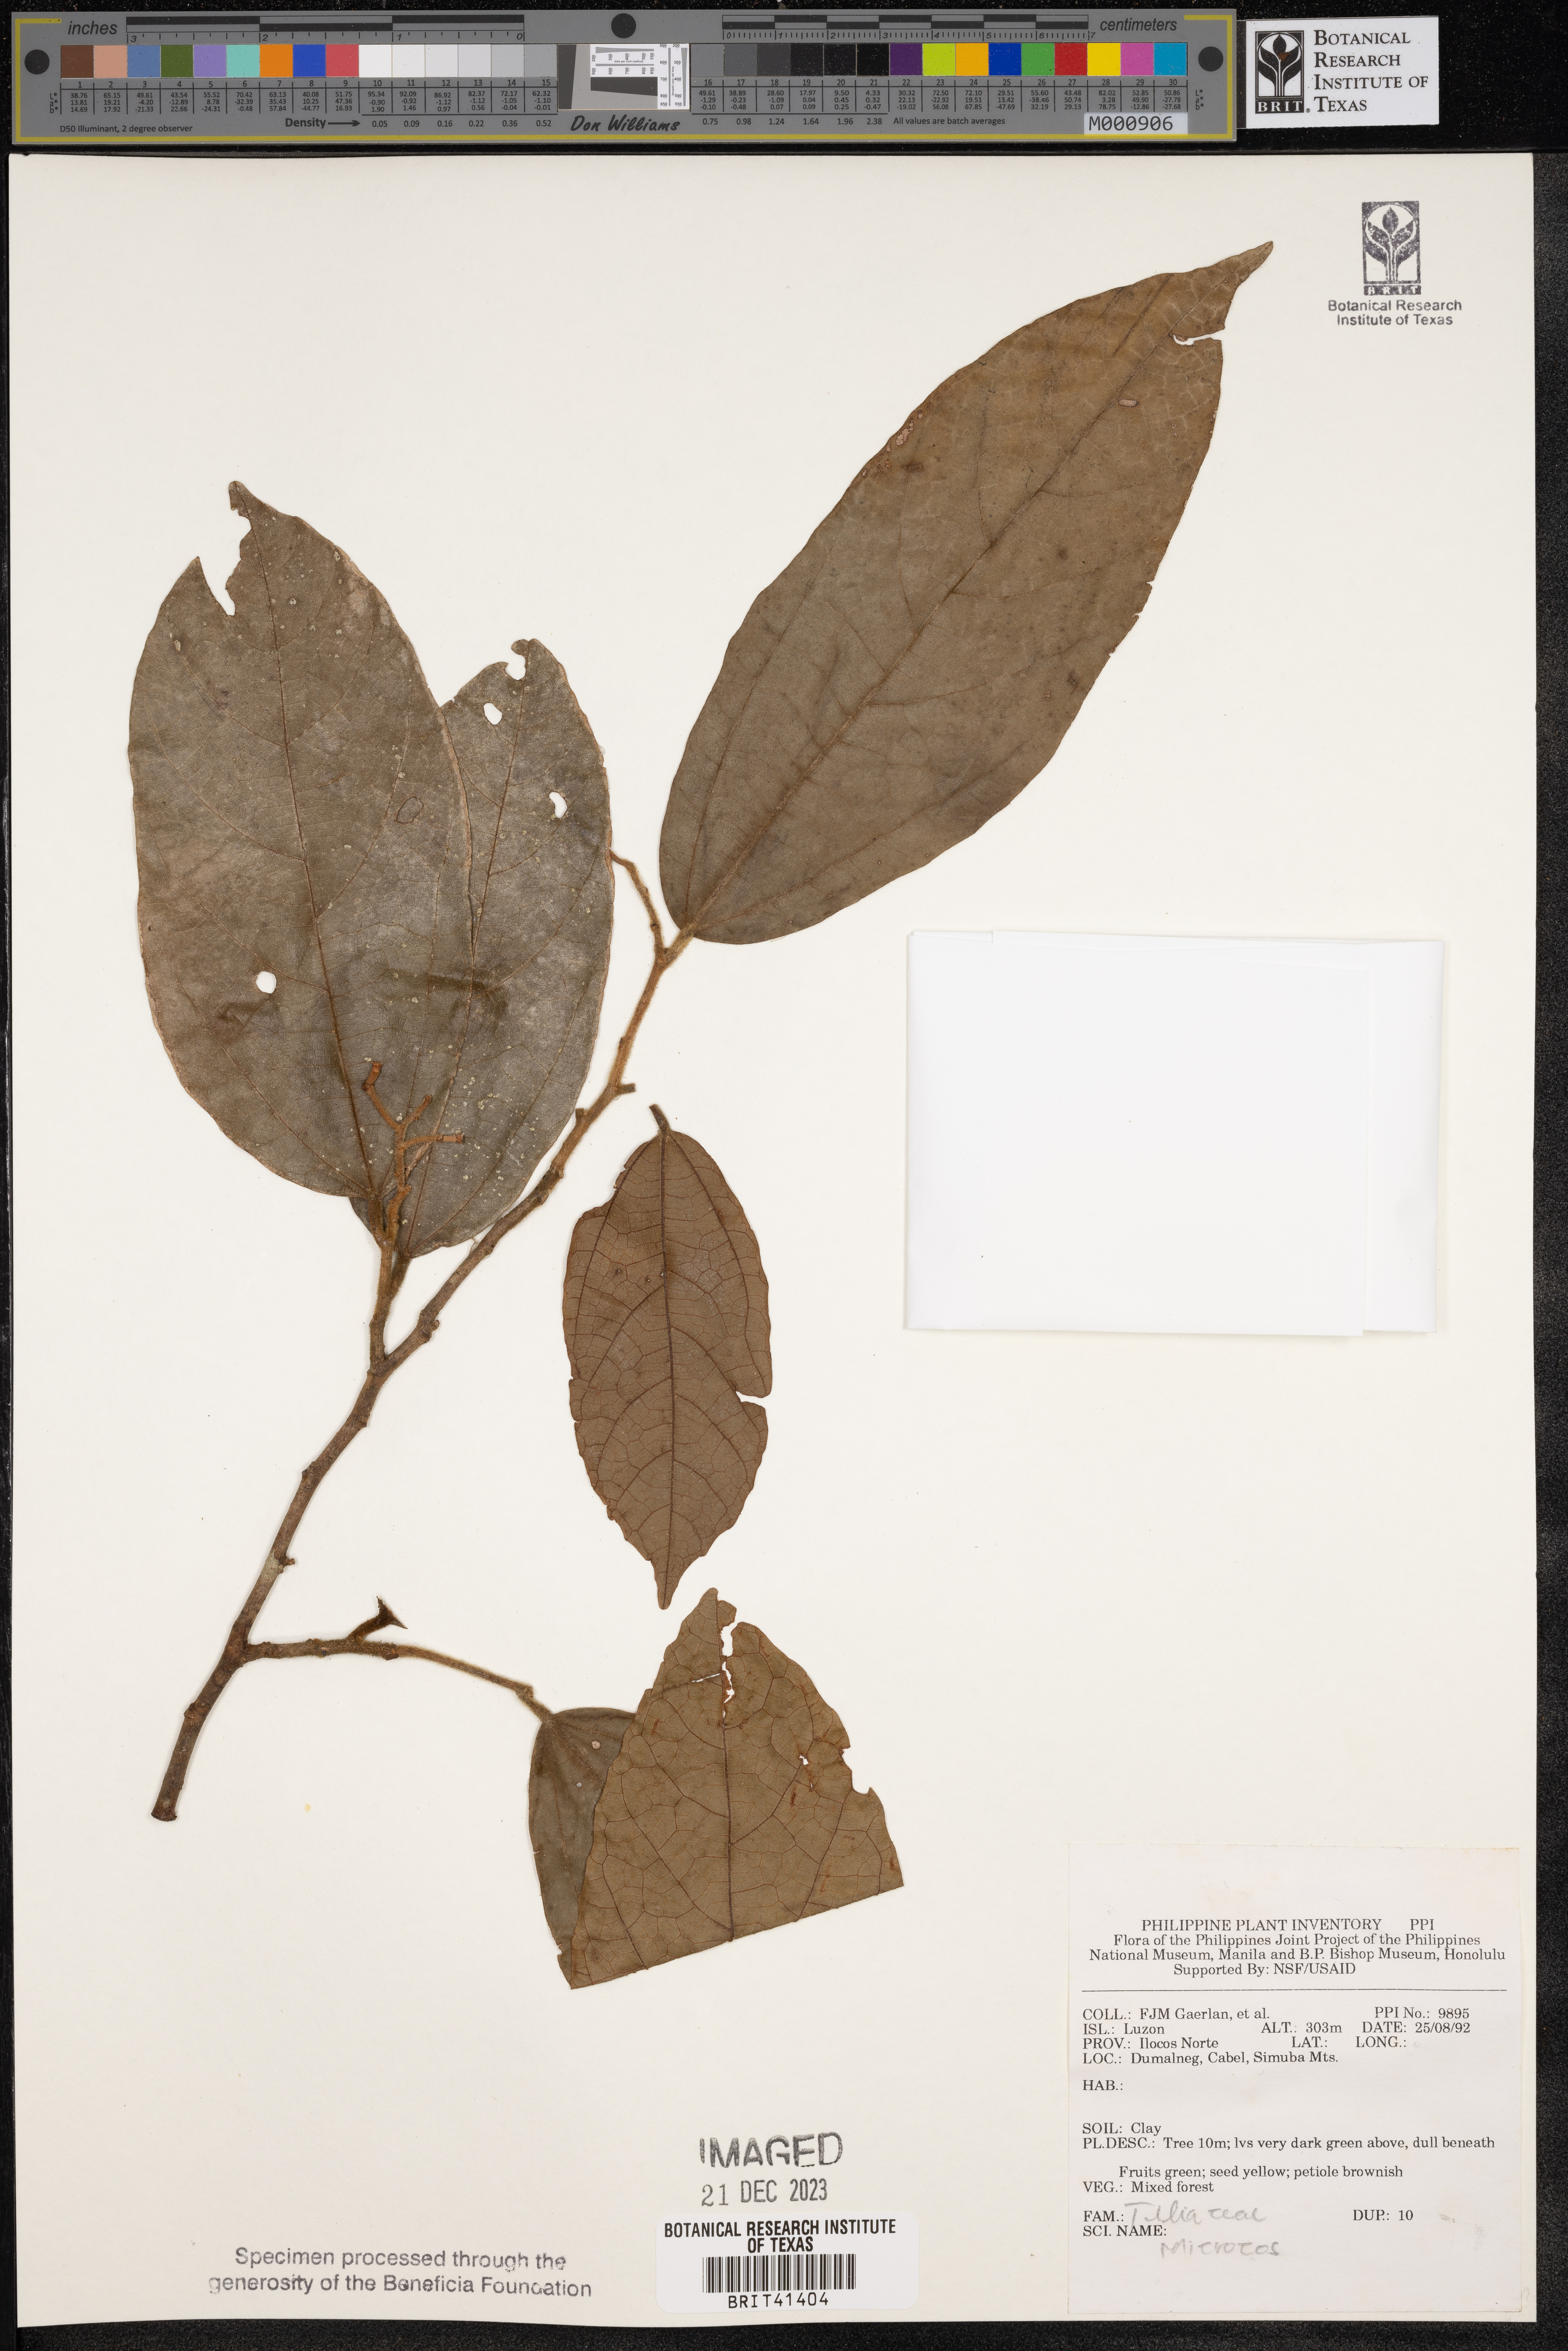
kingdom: Plantae
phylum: Tracheophyta
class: Magnoliopsida
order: Malvales
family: Malvaceae
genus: Microcos
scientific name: Microcos
